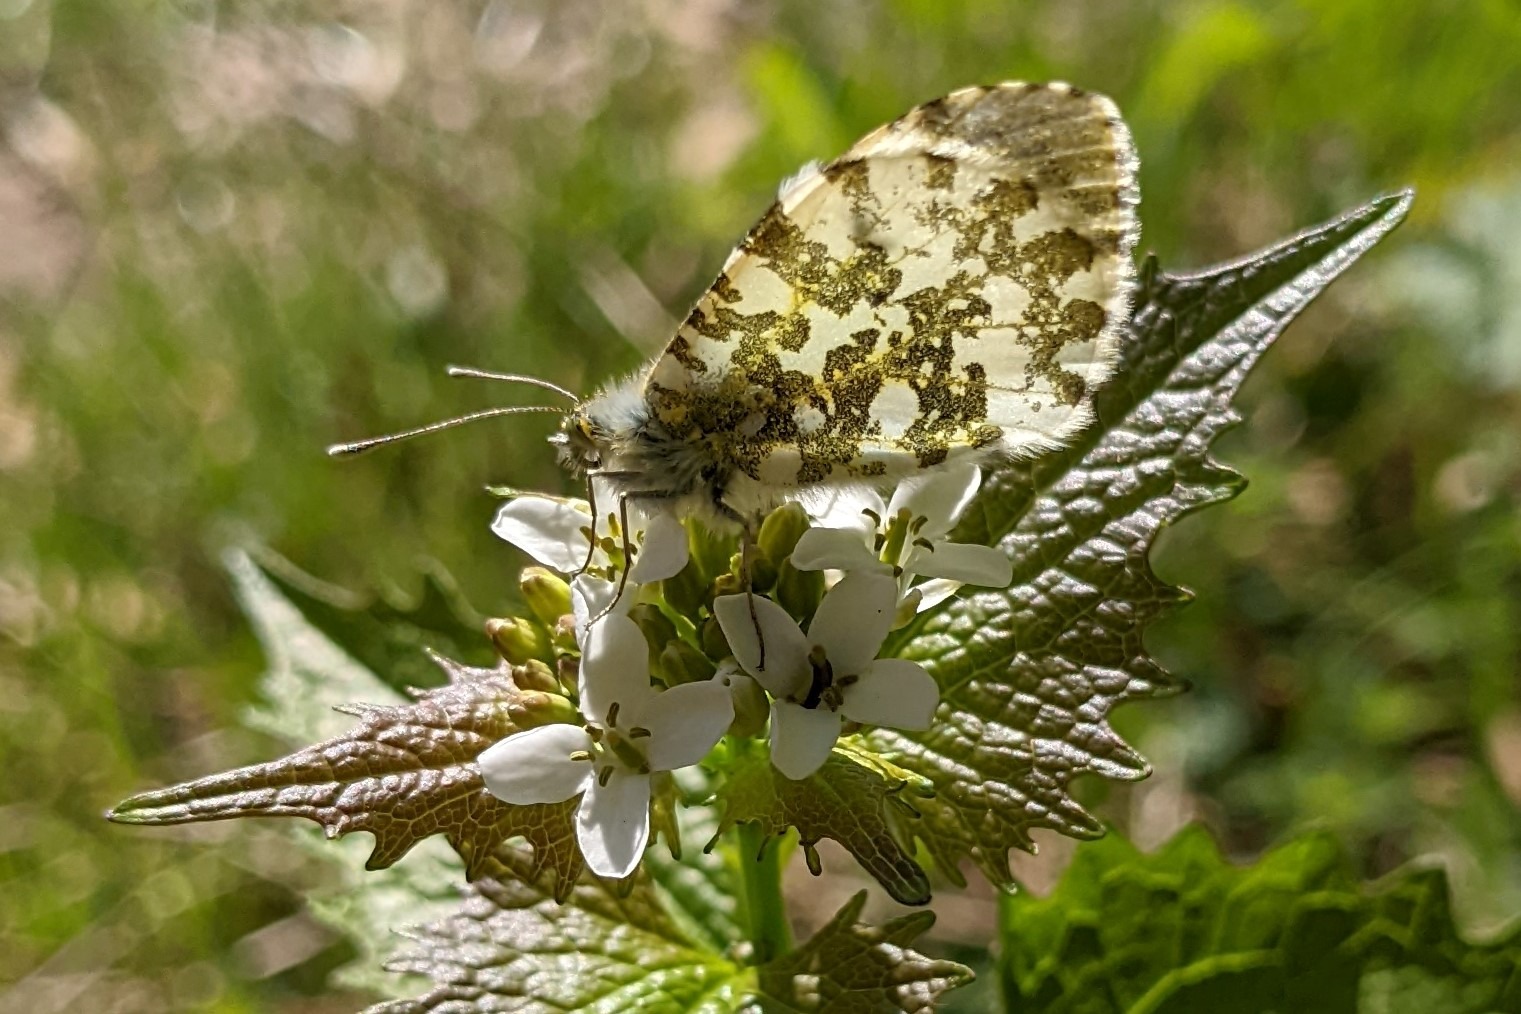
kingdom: Animalia
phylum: Arthropoda
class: Insecta
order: Lepidoptera
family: Pieridae
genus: Anthocharis
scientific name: Anthocharis cardamines
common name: Aurora
